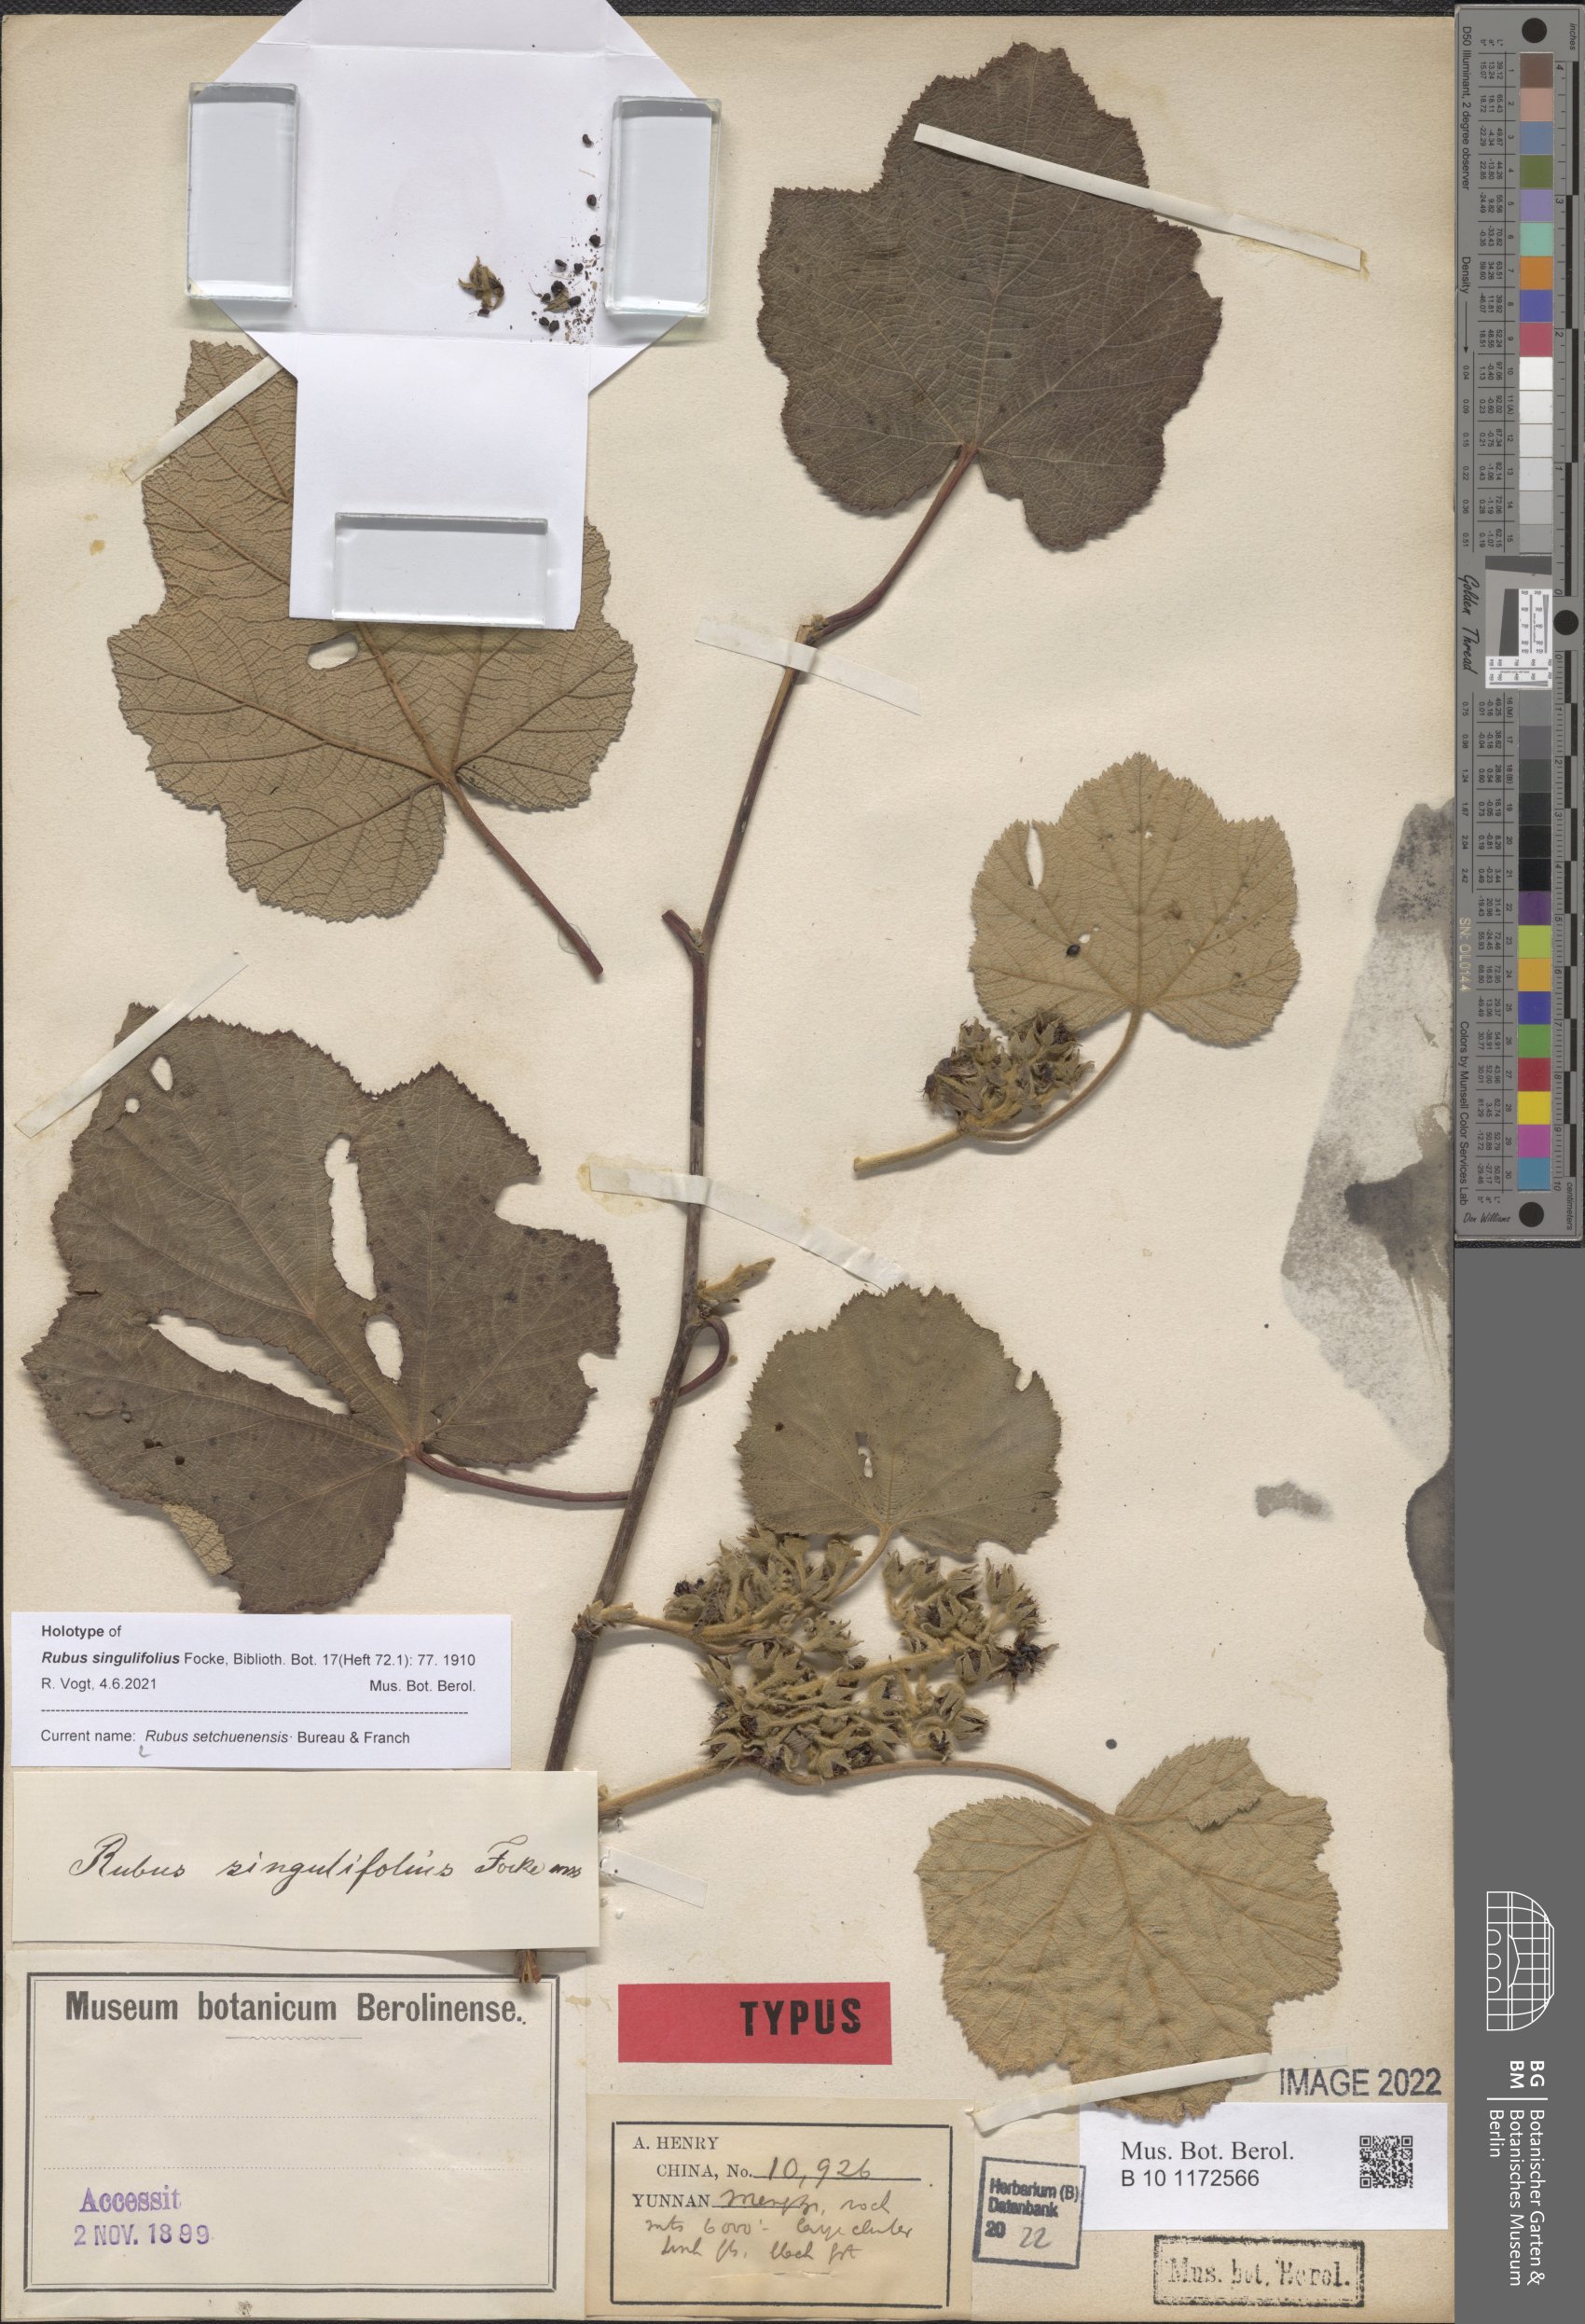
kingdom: Plantae
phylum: Tracheophyta
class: Magnoliopsida
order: Rosales
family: Rosaceae
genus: Rubus
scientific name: Rubus setchuenensis
